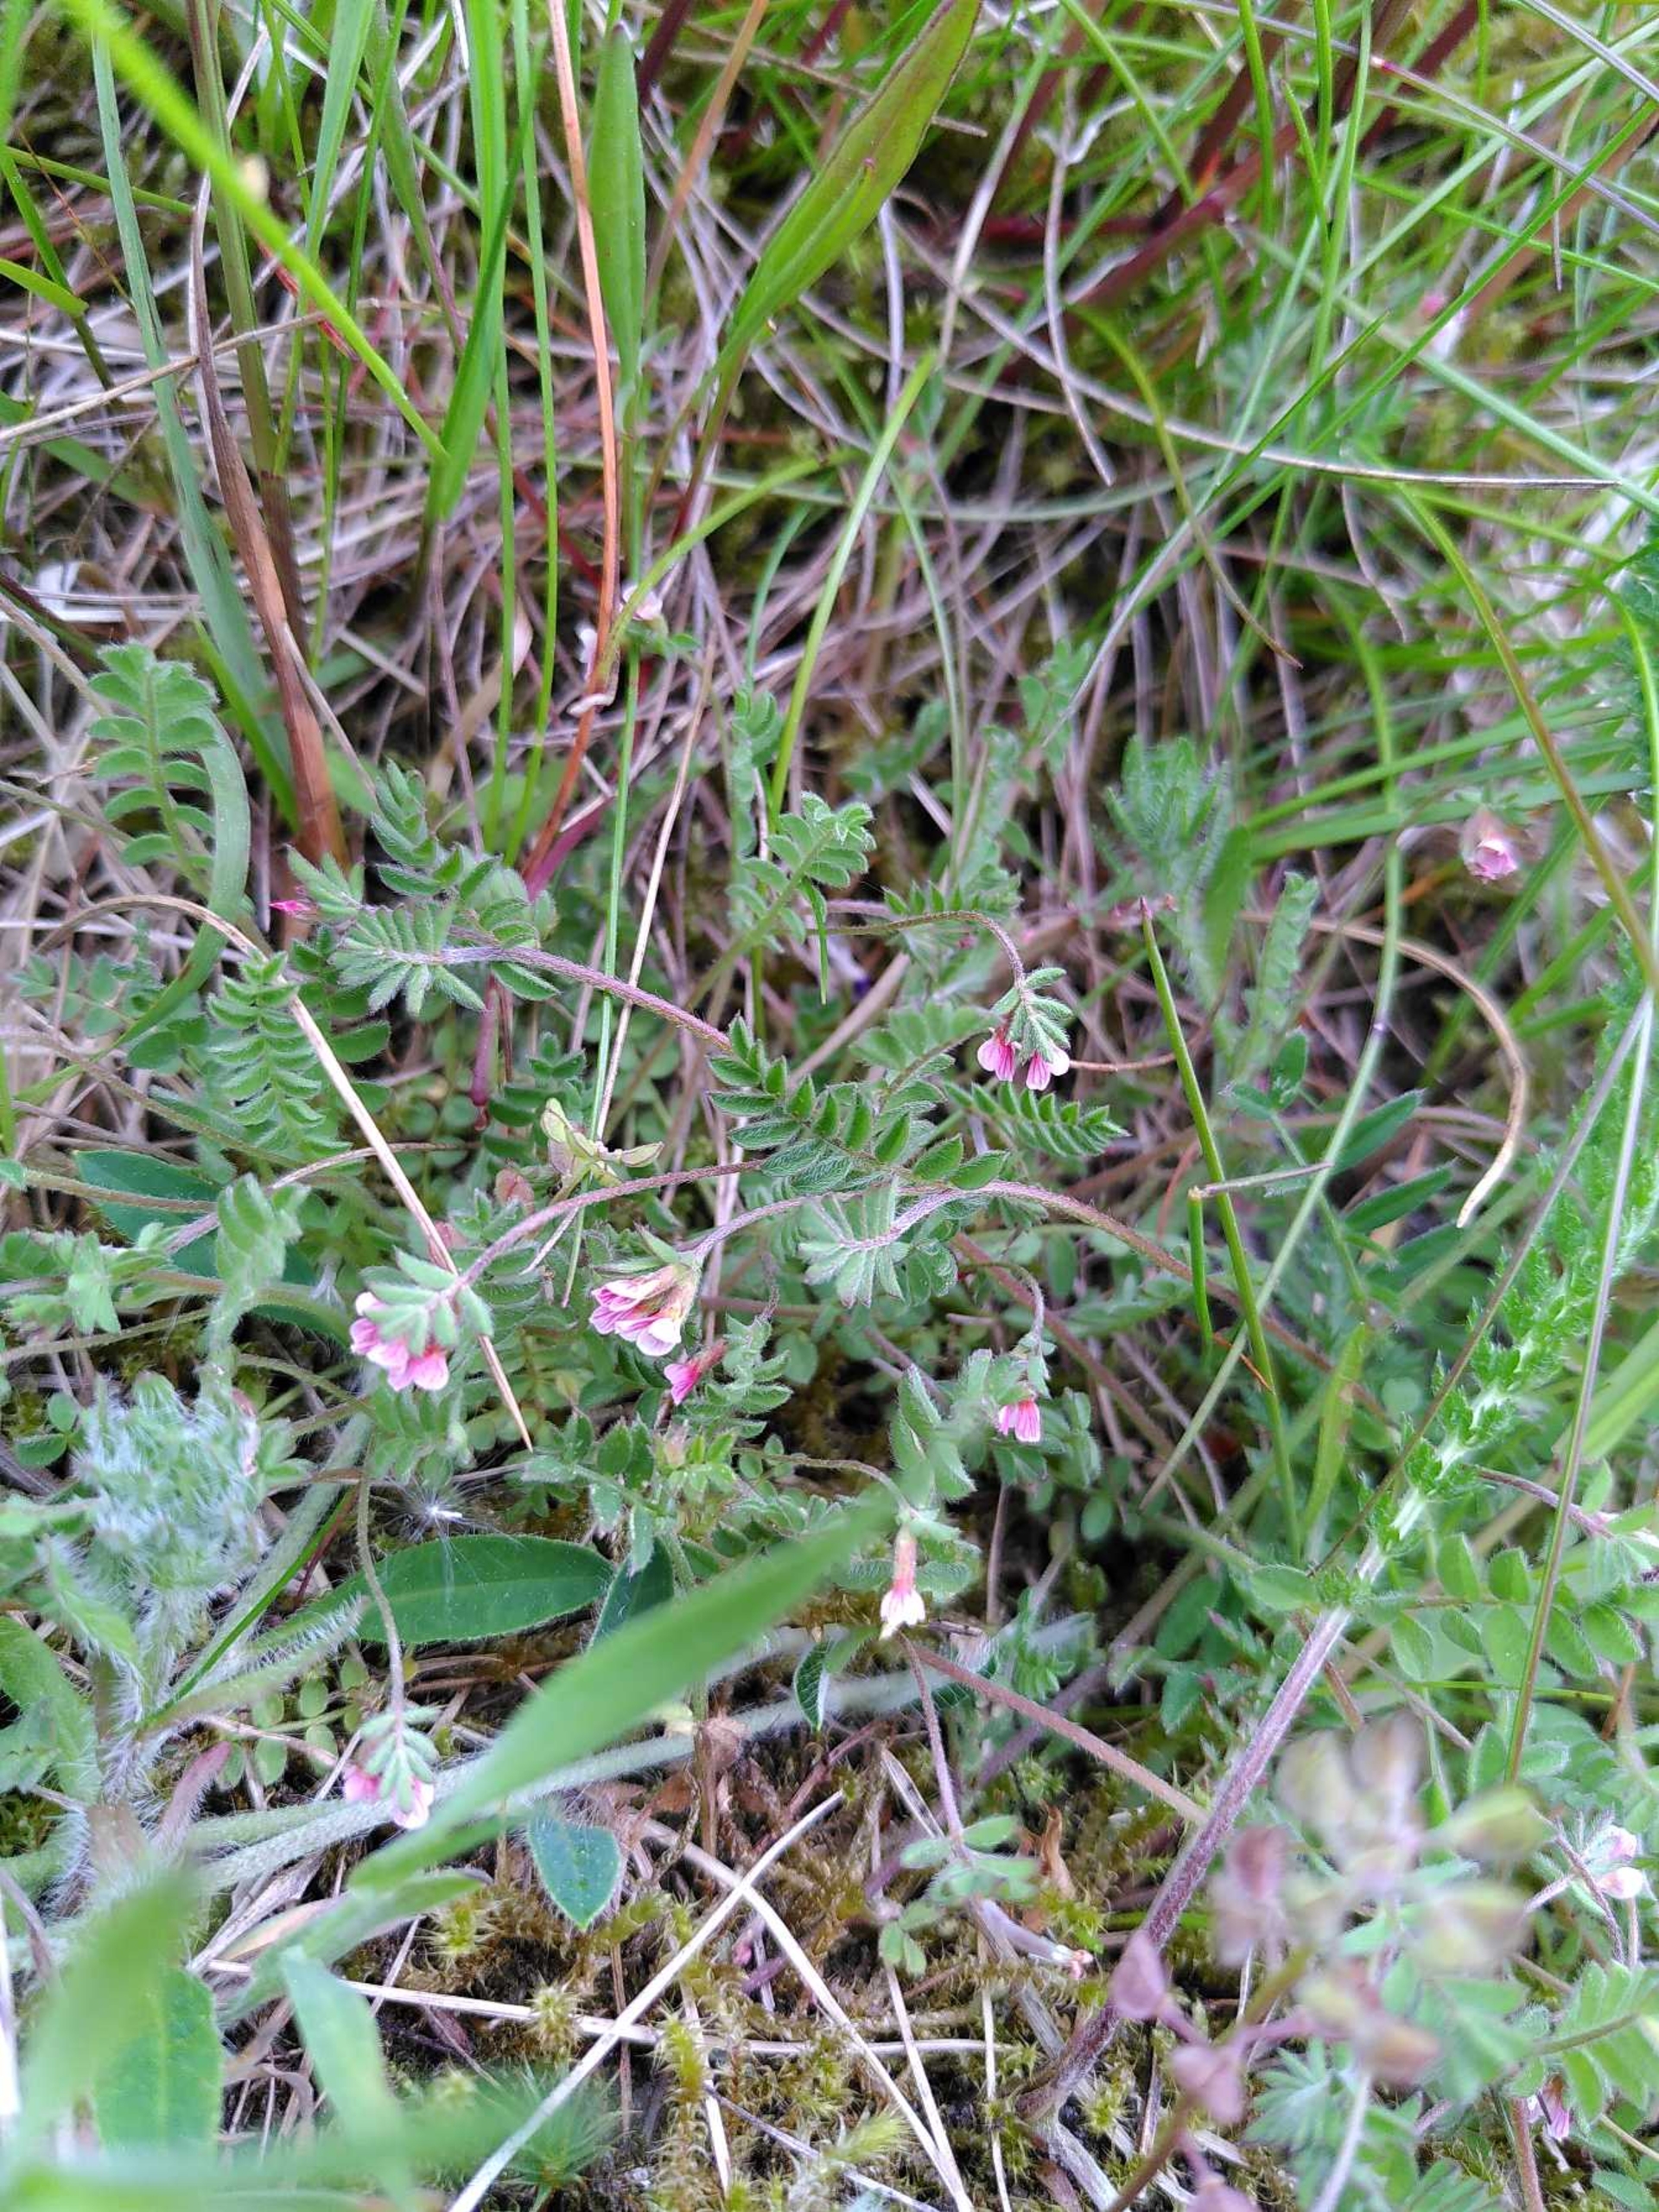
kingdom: Plantae
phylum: Tracheophyta
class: Magnoliopsida
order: Fabales
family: Fabaceae
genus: Ornithopus
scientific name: Ornithopus perpusillus
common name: Liden fugleklo
